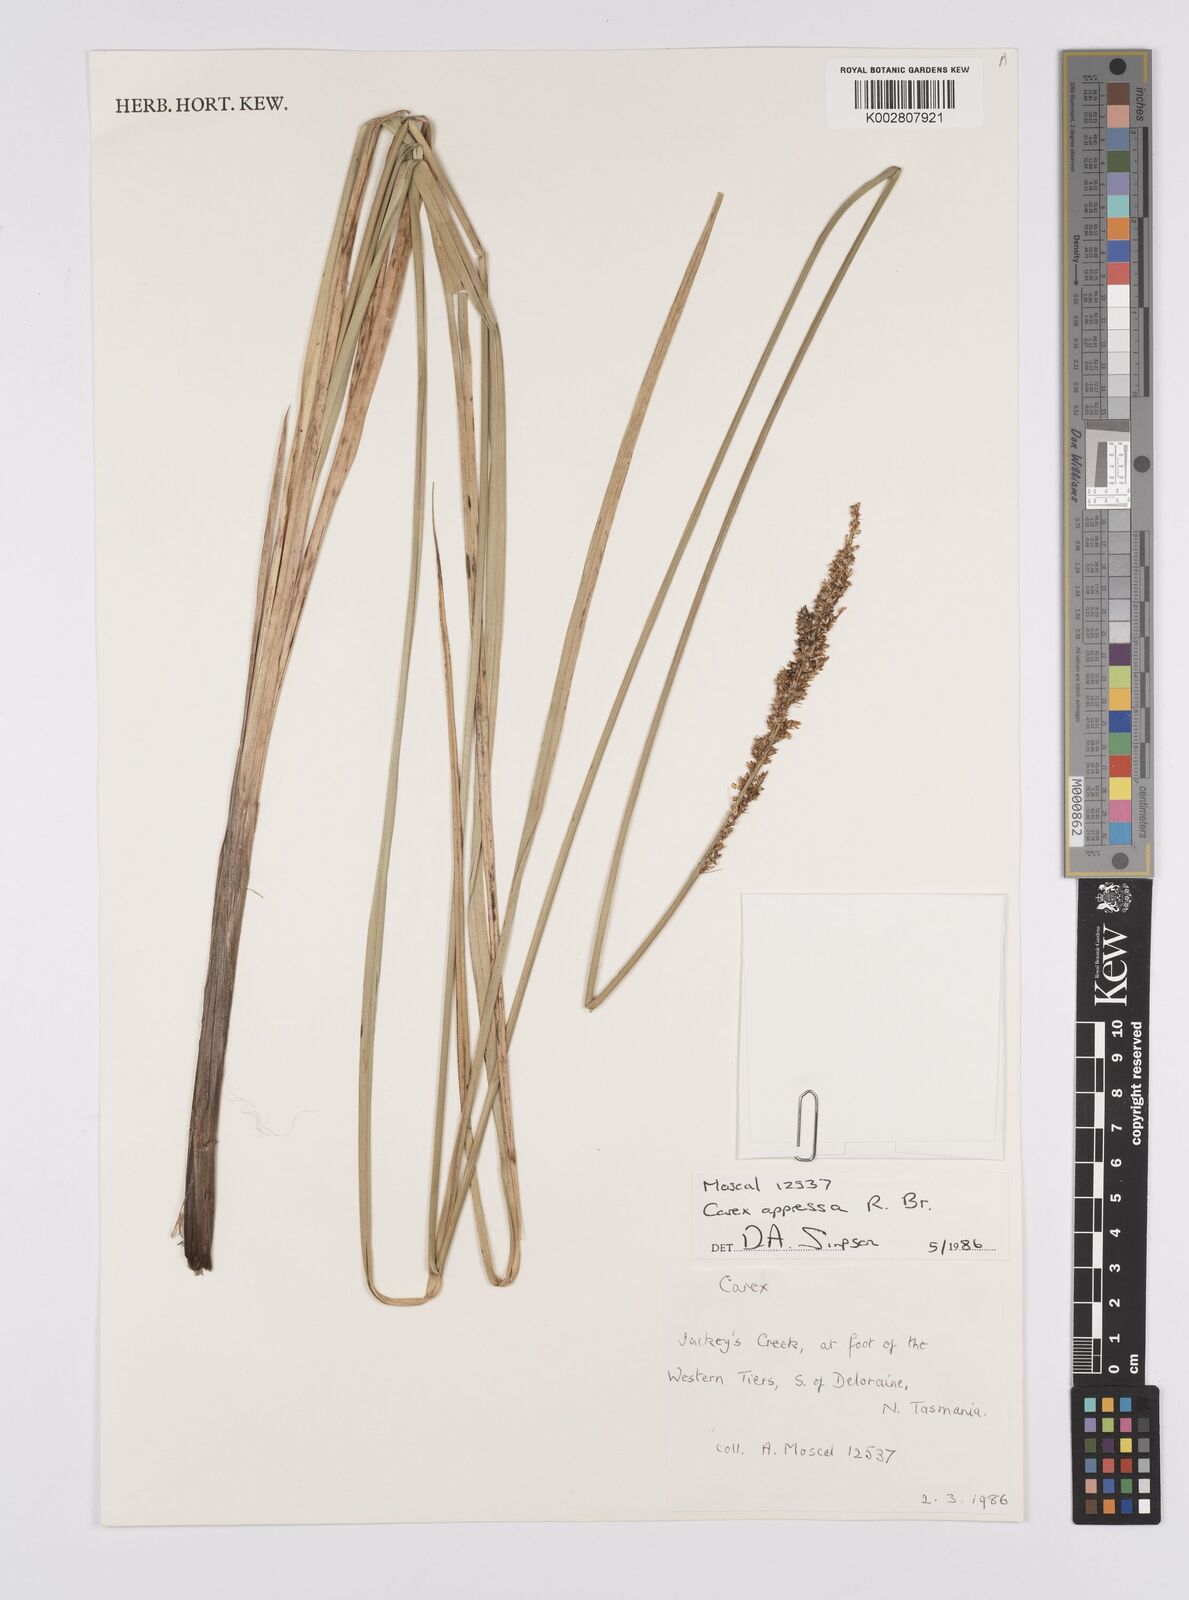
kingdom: Plantae
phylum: Tracheophyta
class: Liliopsida
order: Poales
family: Cyperaceae
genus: Carex
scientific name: Carex appressa
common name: Tussock sedge
